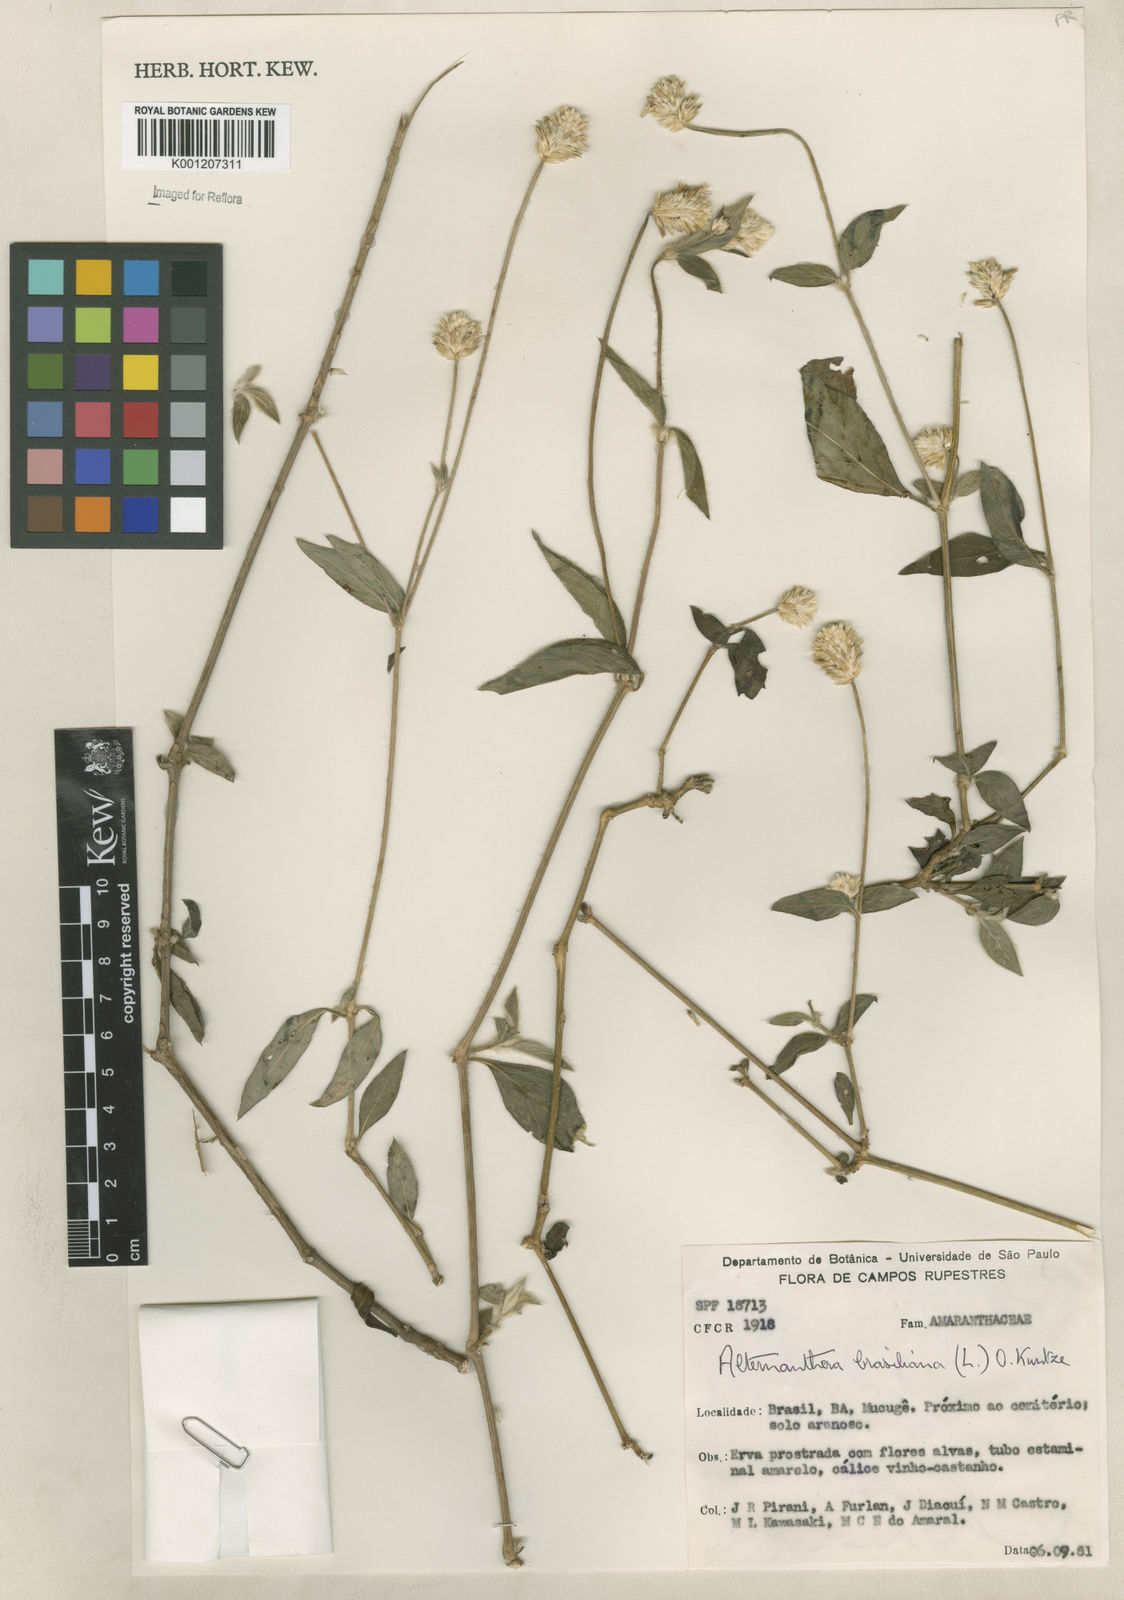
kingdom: Plantae
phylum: Tracheophyta
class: Magnoliopsida
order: Caryophyllales
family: Amaranthaceae
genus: Alternanthera
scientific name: Alternanthera brasiliana
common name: Brazilian joyweed
